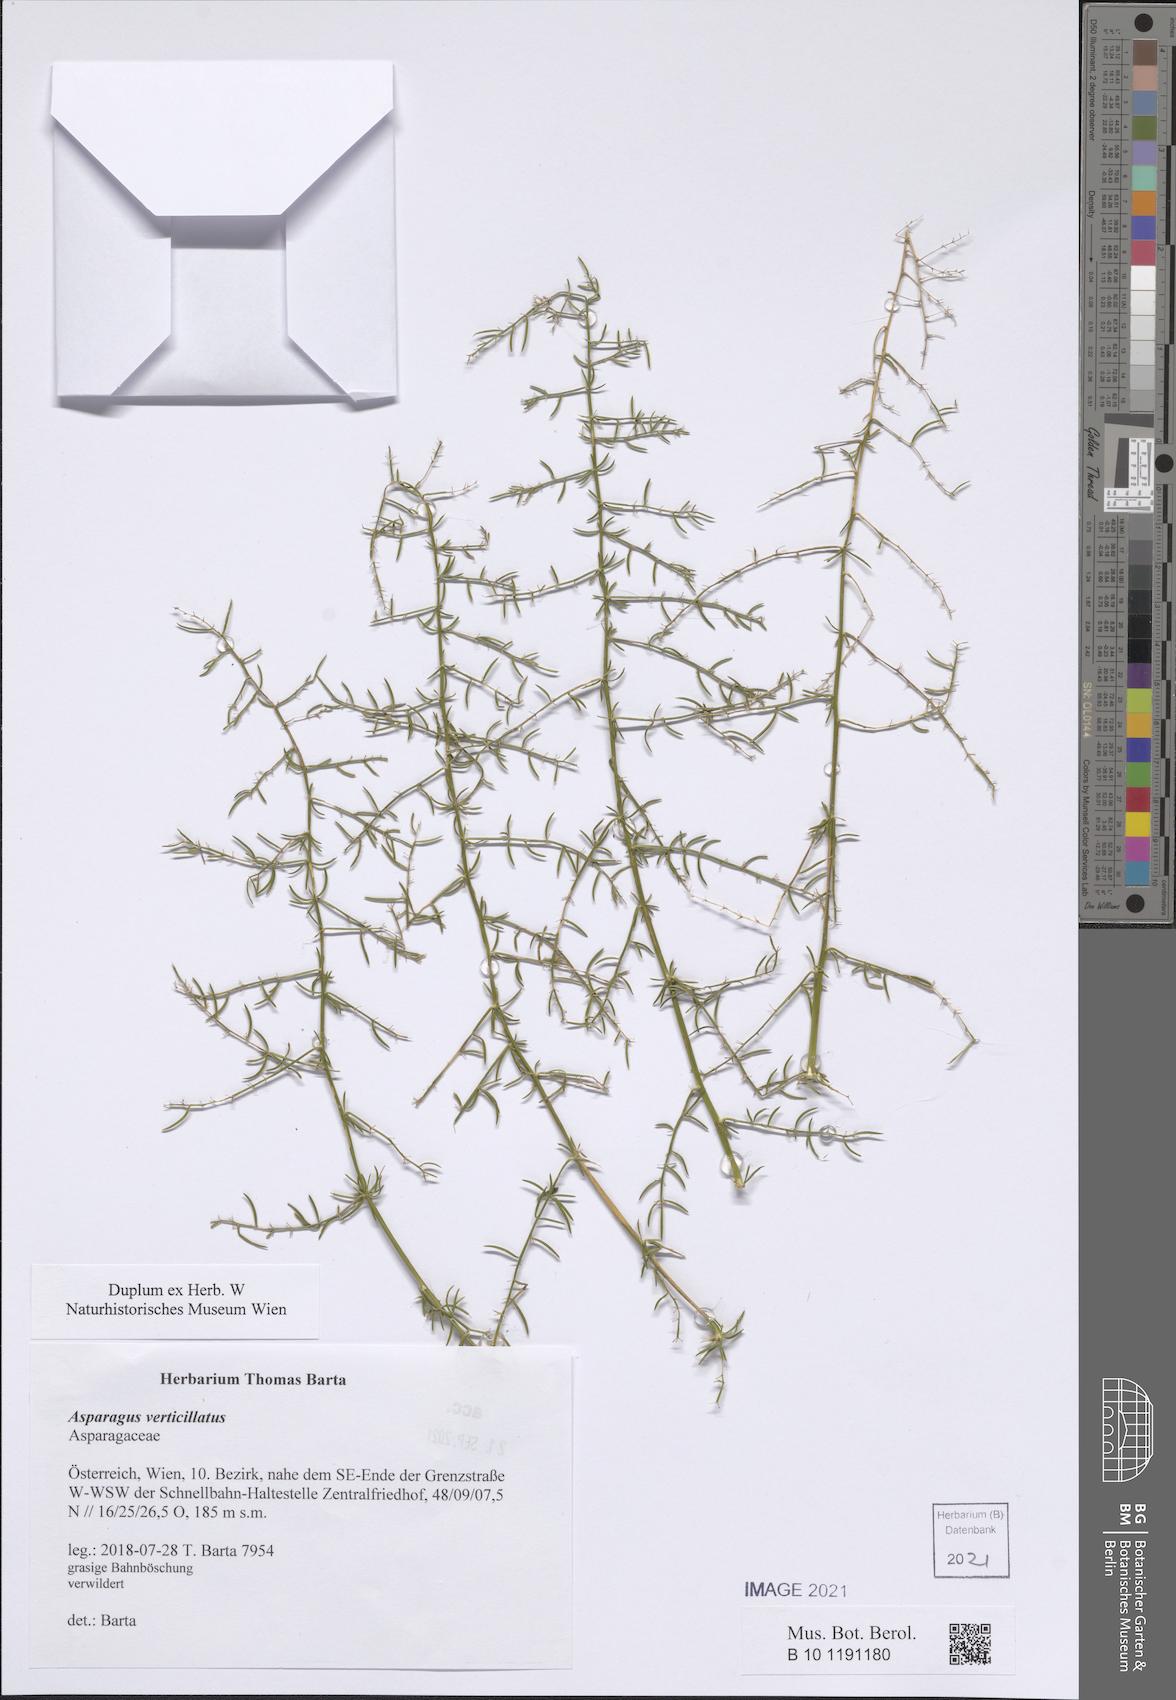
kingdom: Plantae
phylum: Tracheophyta
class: Liliopsida
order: Asparagales
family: Asparagaceae
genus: Asparagus
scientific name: Asparagus verticillatus
